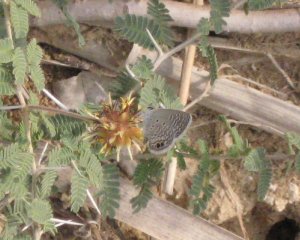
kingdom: Animalia
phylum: Arthropoda
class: Insecta
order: Lepidoptera
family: Lycaenidae
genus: Hemiargus
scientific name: Hemiargus ceraunus
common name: Ceraunus Blue
